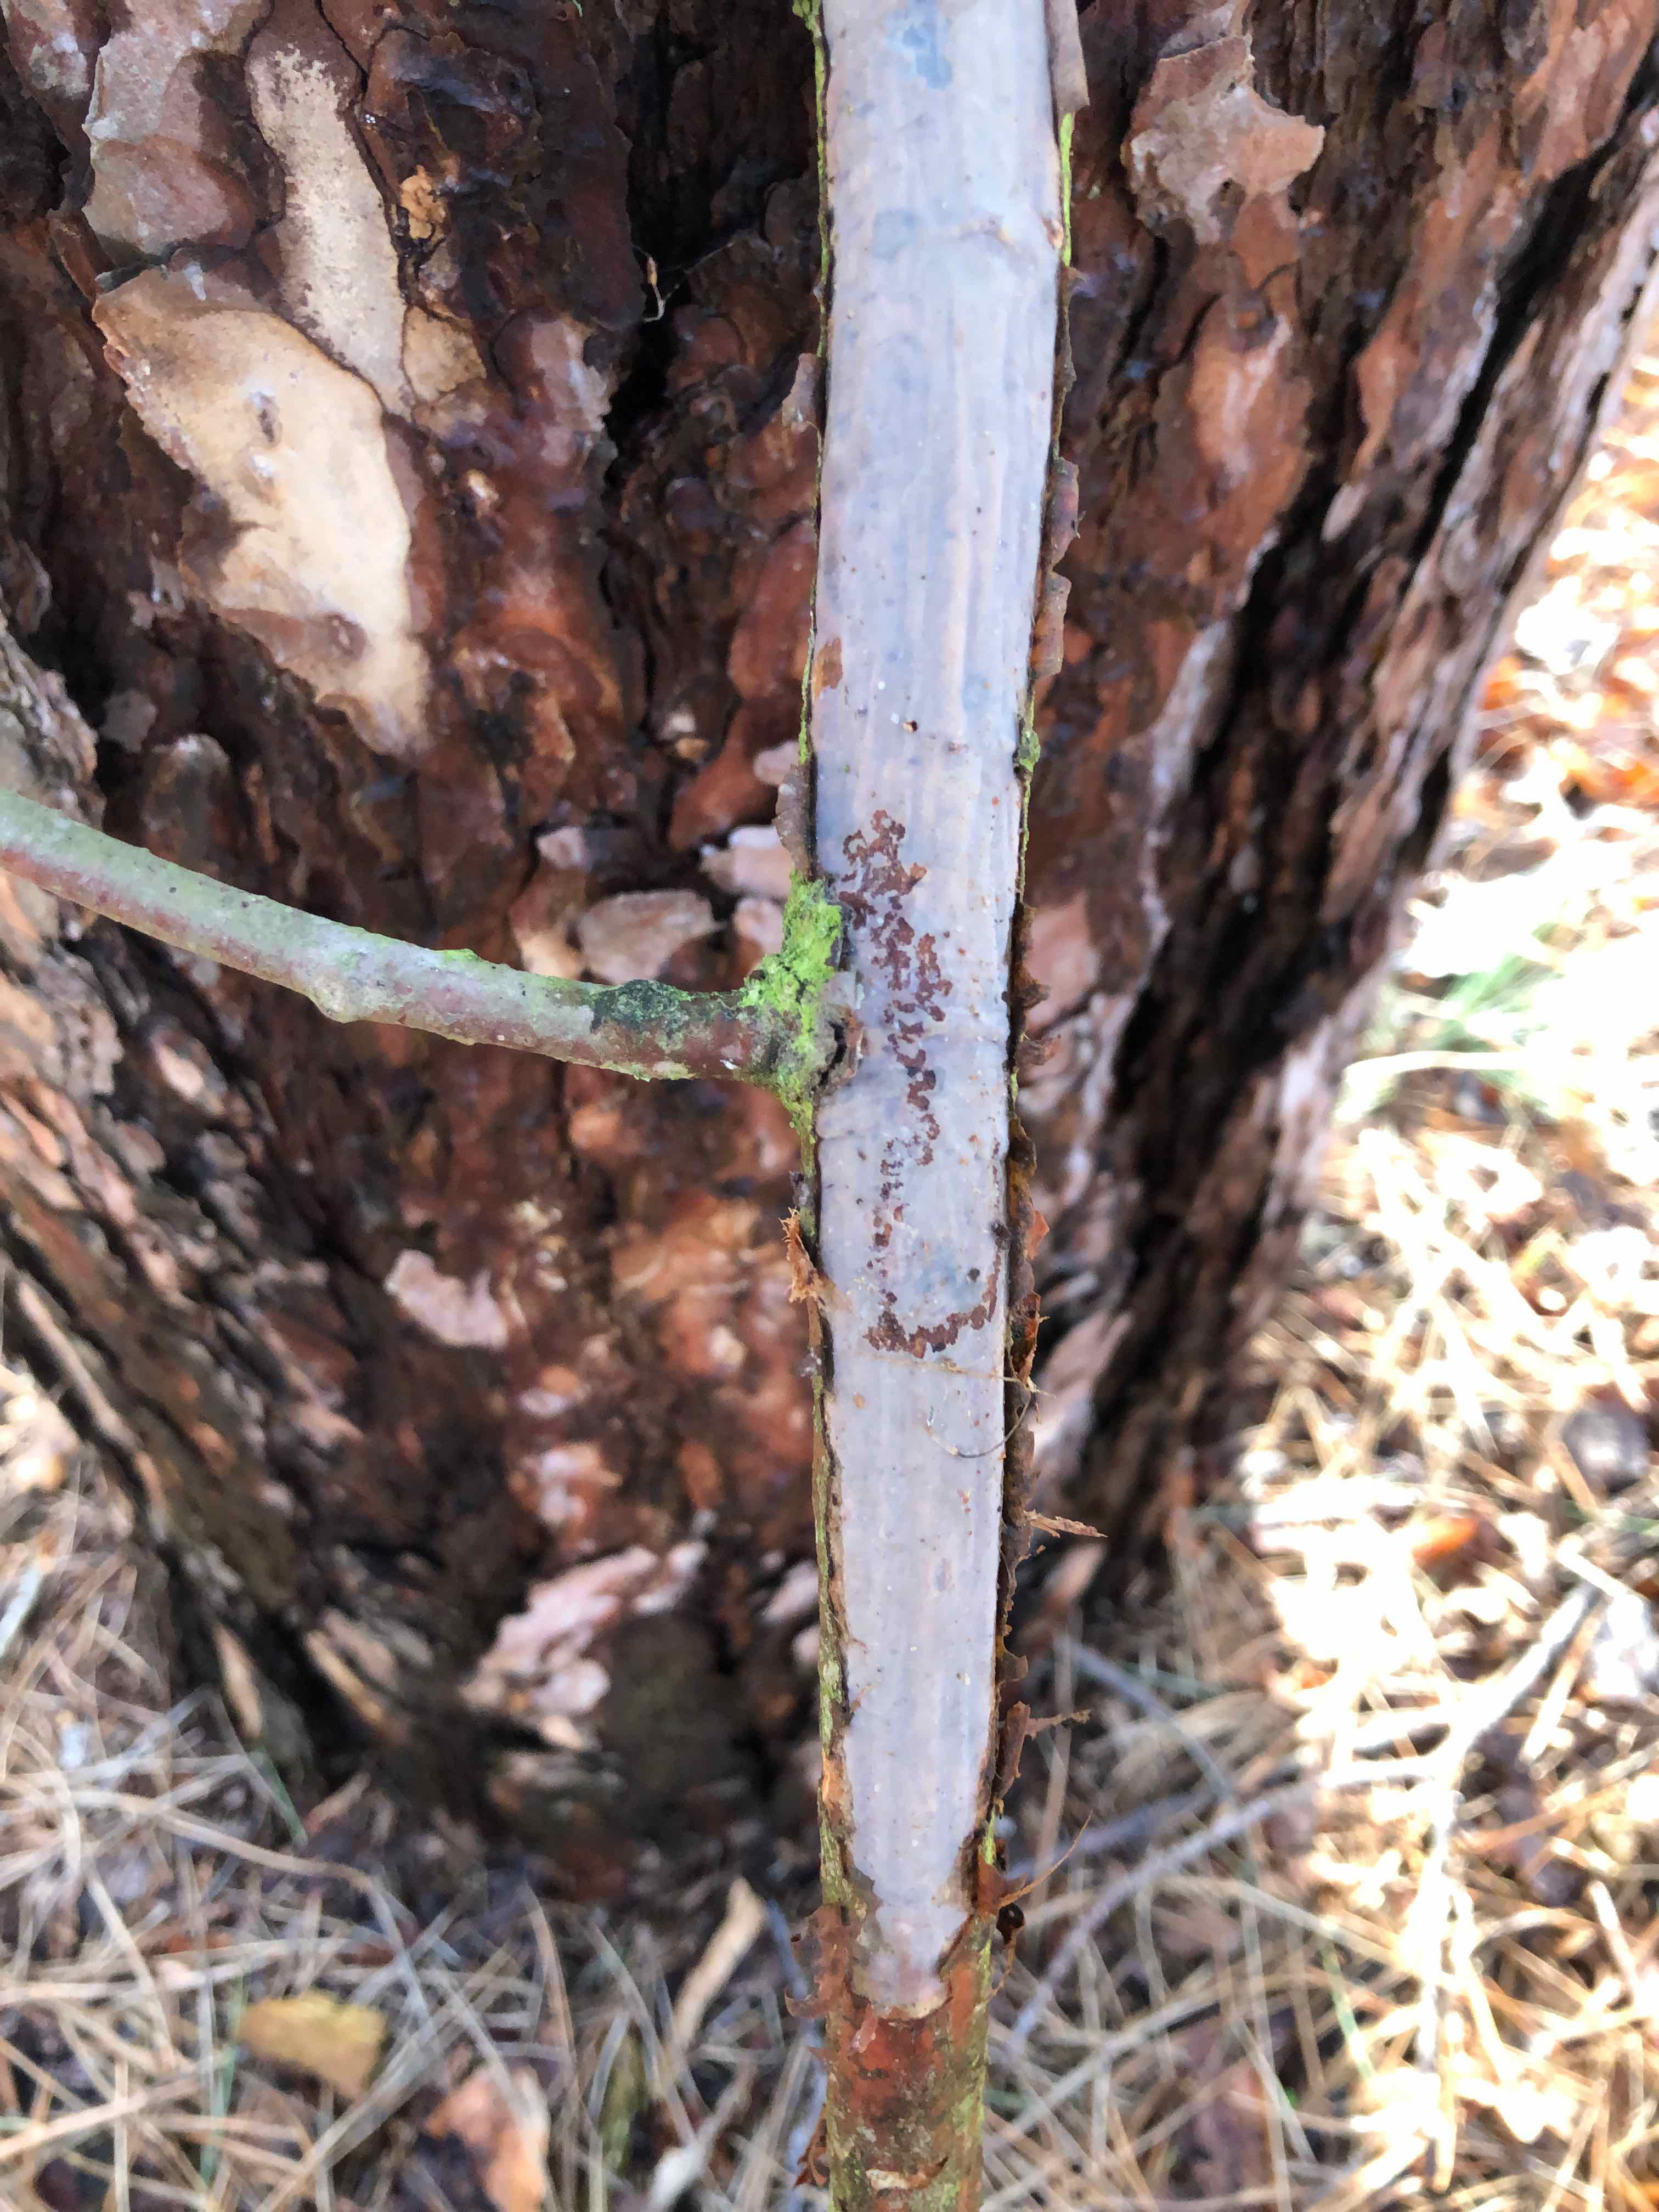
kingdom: Fungi
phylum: Basidiomycota
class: Agaricomycetes
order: Corticiales
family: Vuilleminiaceae
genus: Vuilleminia
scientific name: Vuilleminia comedens
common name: almindelig barksprænger
